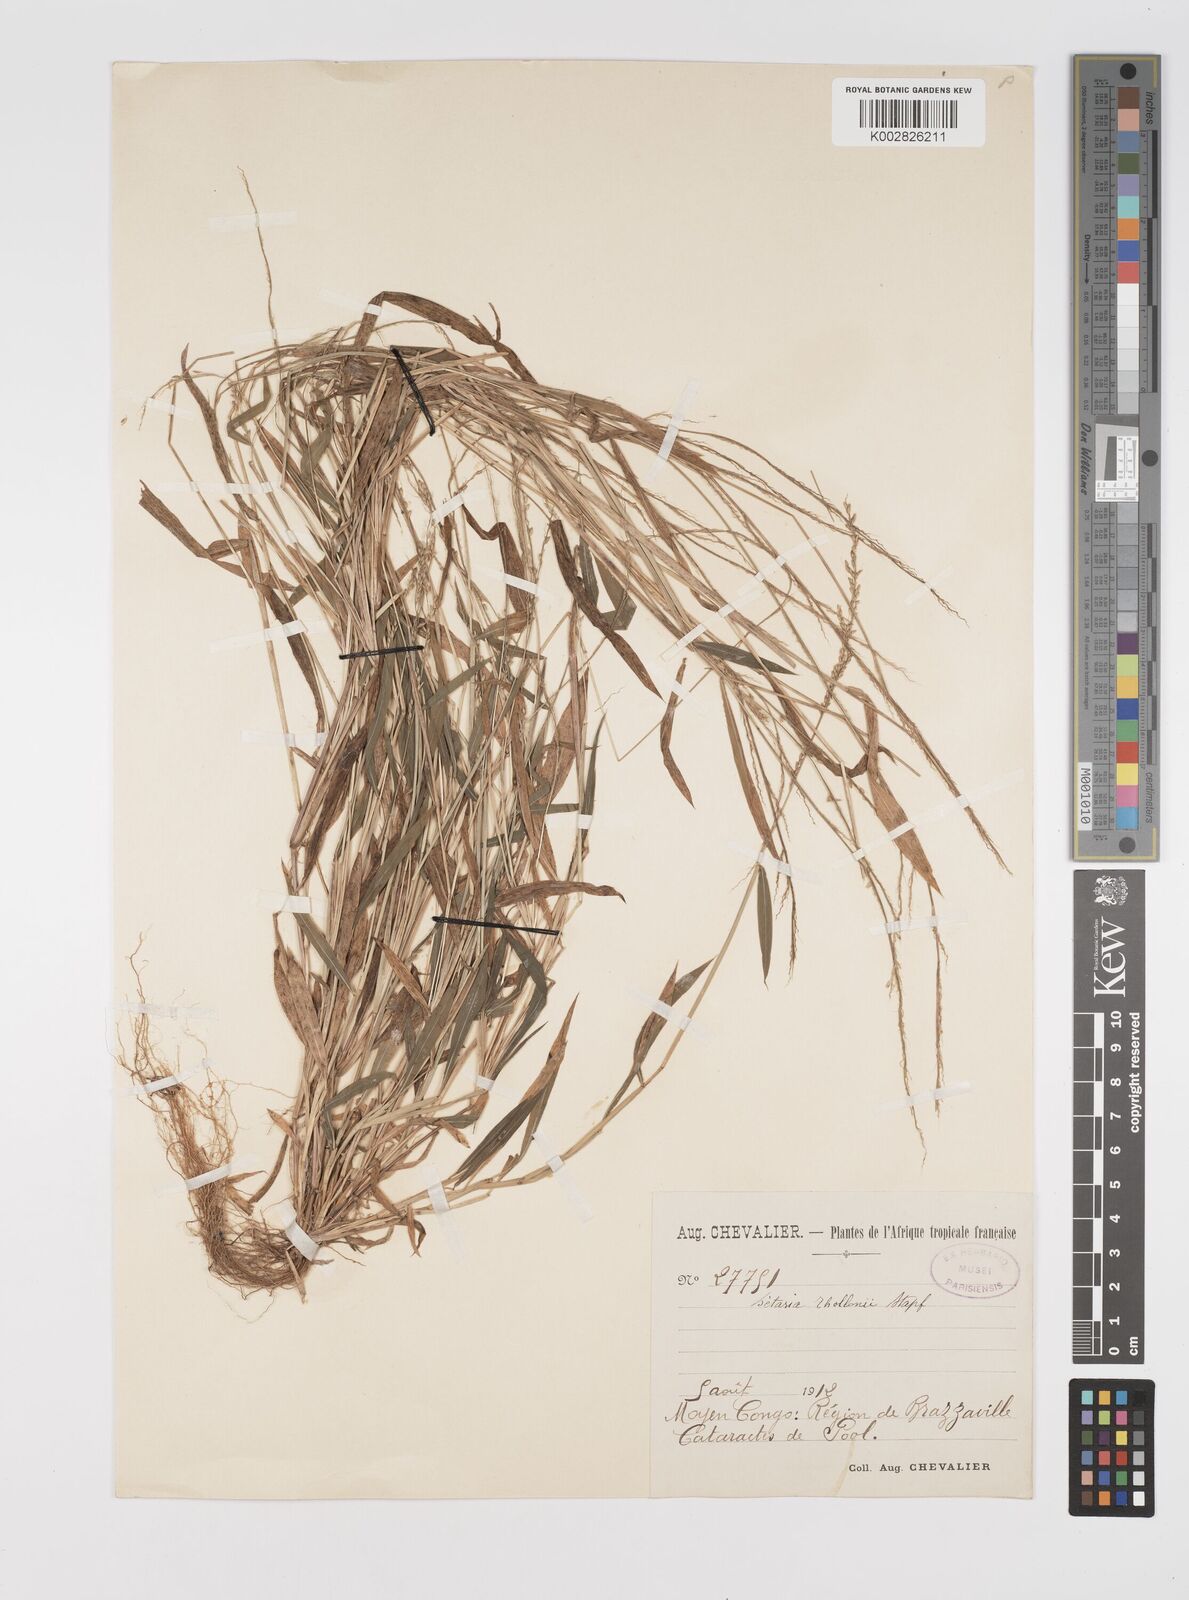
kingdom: Plantae
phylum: Tracheophyta
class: Liliopsida
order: Poales
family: Poaceae
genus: Setaria
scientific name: Setaria homonyma
